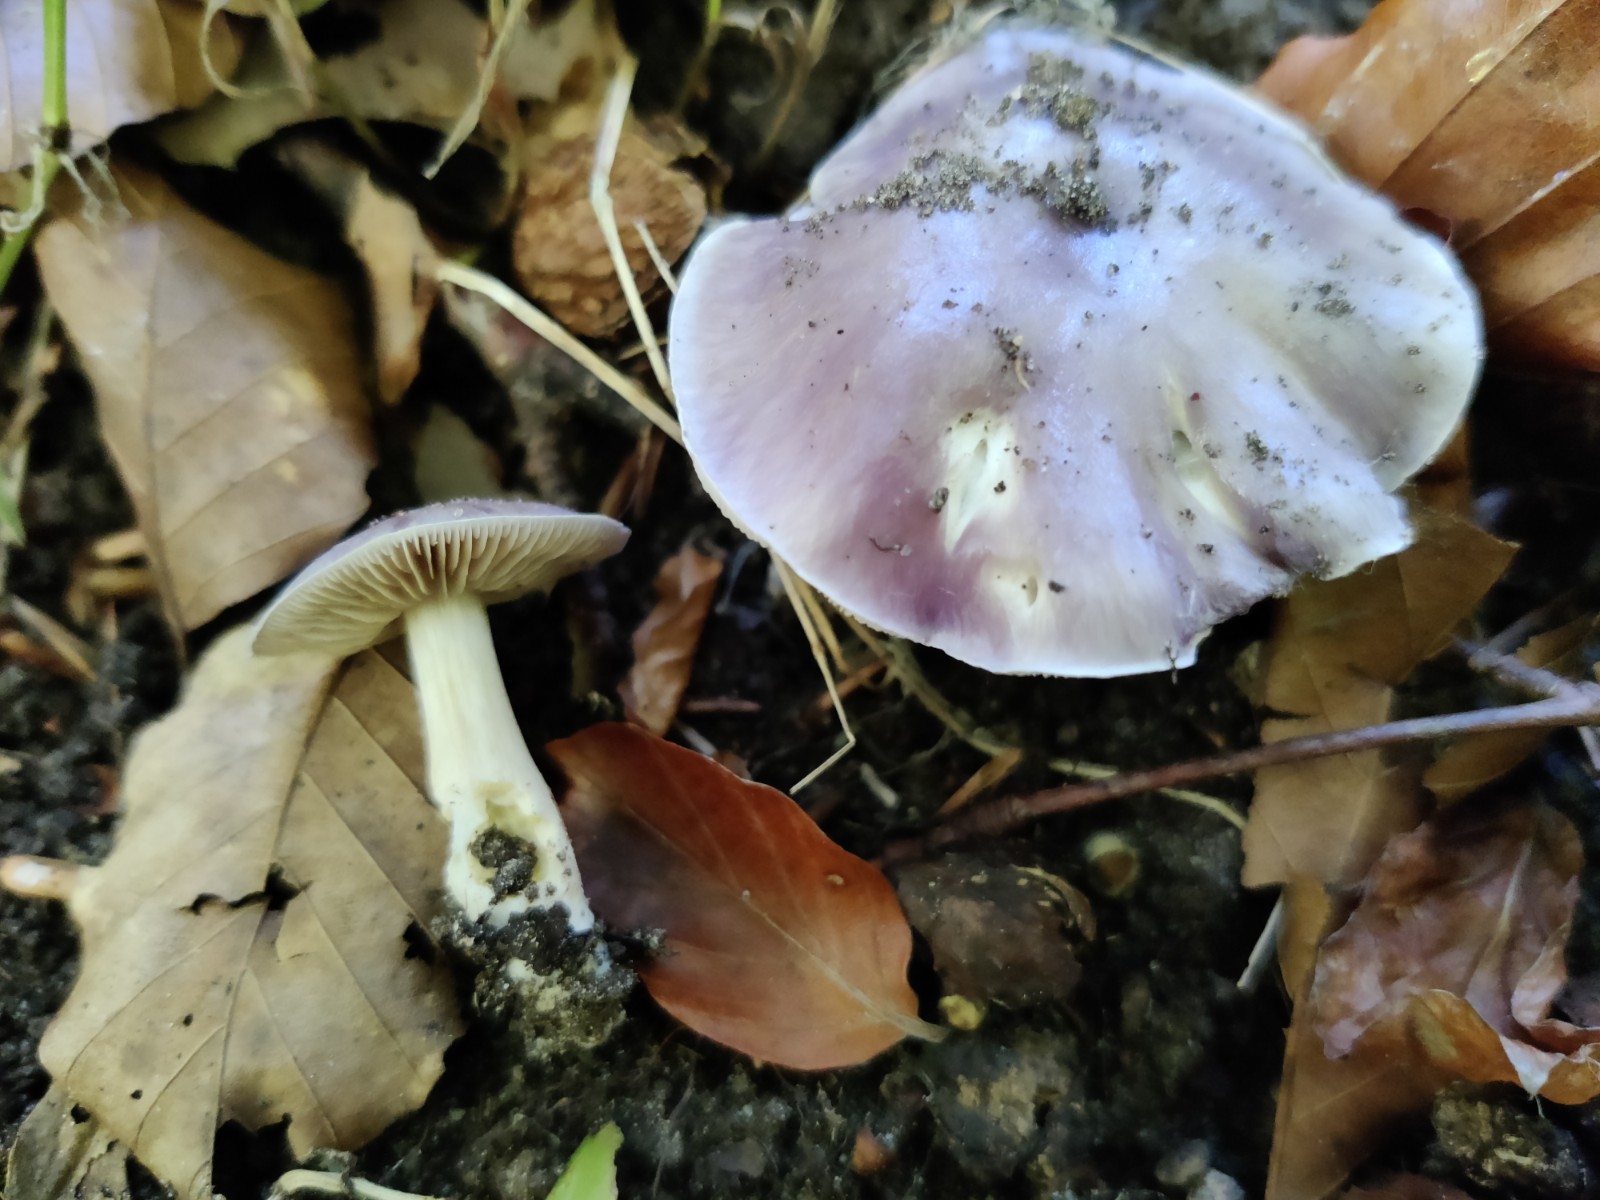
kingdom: Fungi
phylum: Basidiomycota
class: Agaricomycetes
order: Agaricales
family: Cortinariaceae
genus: Thaxterogaster
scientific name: Thaxterogaster croceocoeruleus
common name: blågullig slørhat
